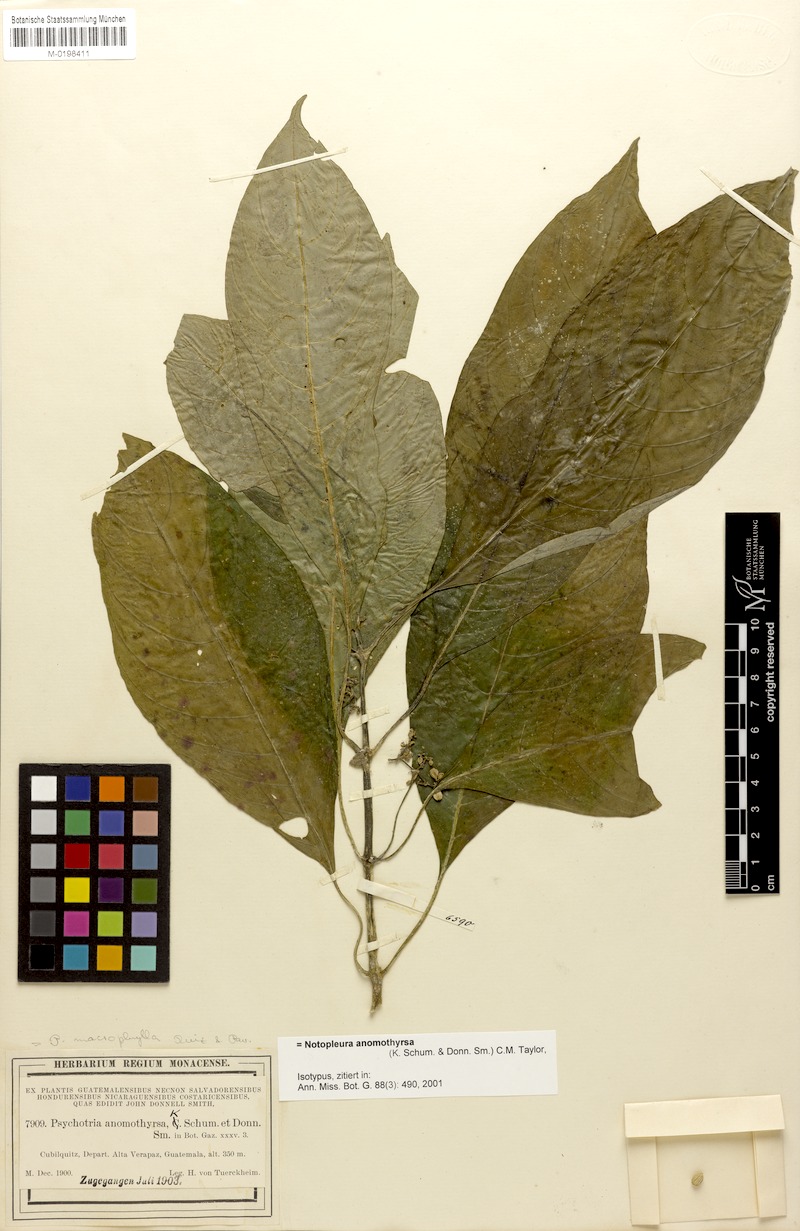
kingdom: Plantae
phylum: Tracheophyta
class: Magnoliopsida
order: Gentianales
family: Rubiaceae
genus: Notopleura
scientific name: Notopleura anomothyrsa
